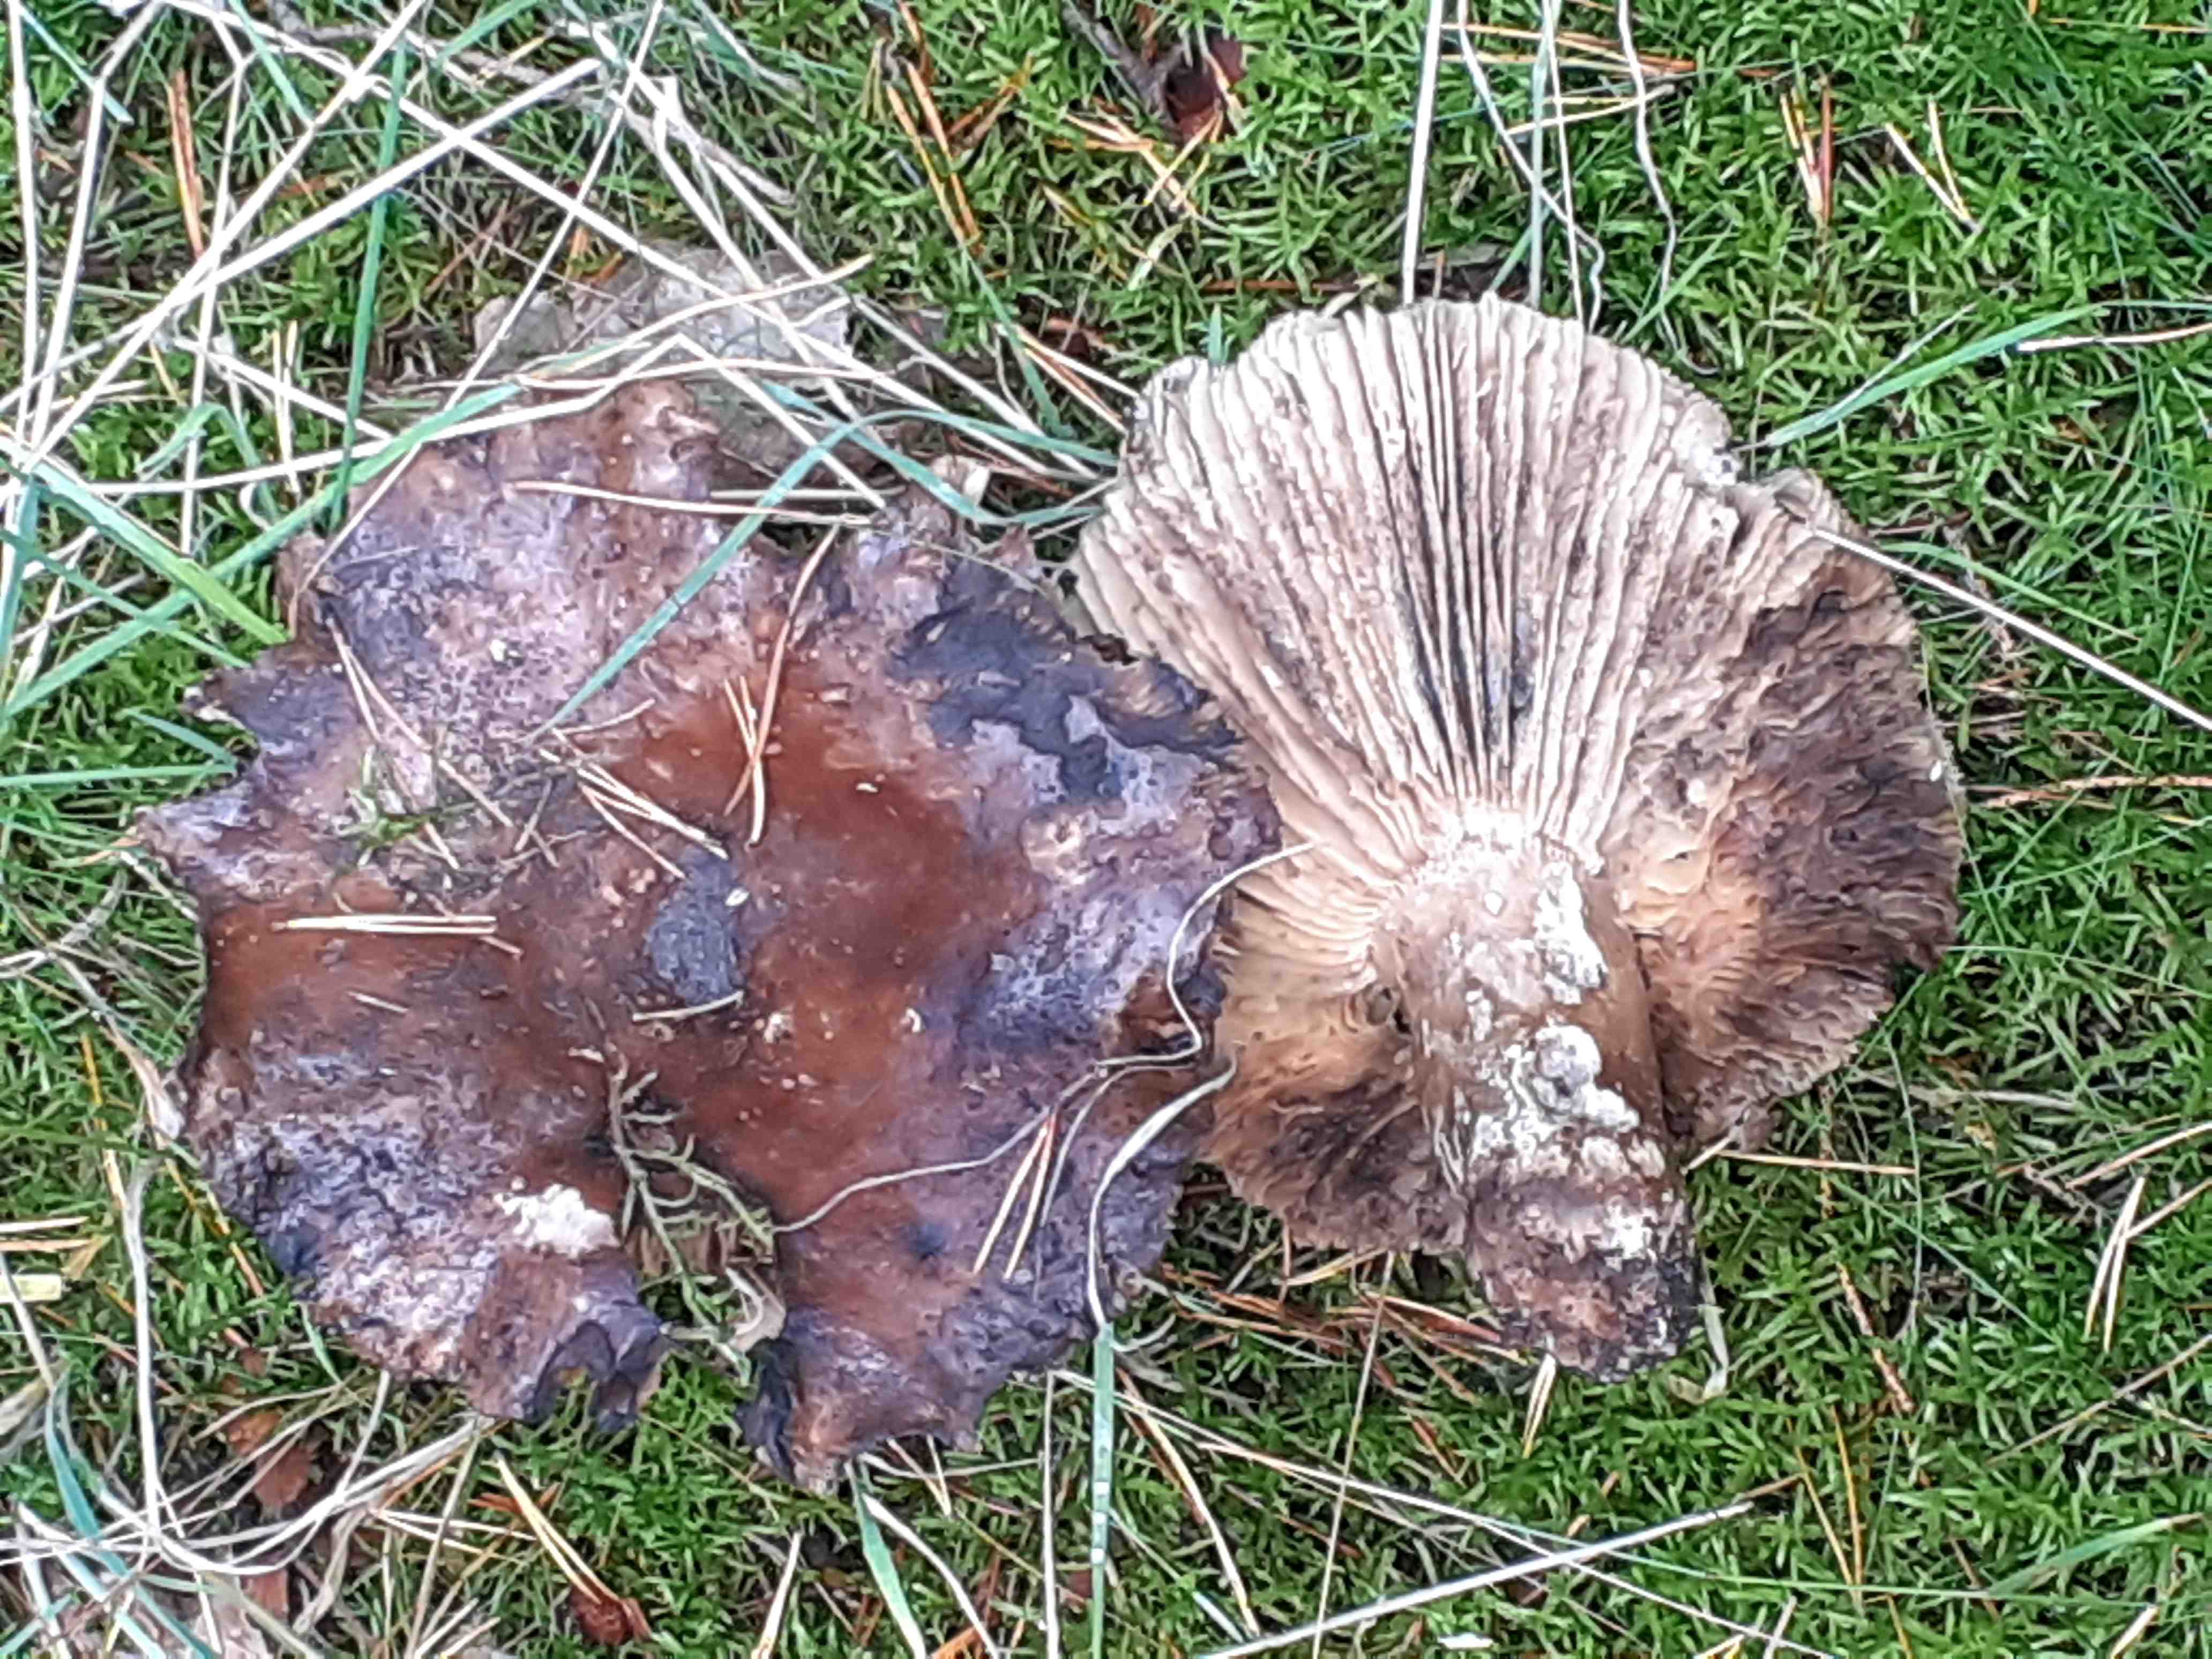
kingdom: Fungi
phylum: Basidiomycota
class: Agaricomycetes
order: Russulales
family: Russulaceae
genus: Russula
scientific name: Russula adusta
